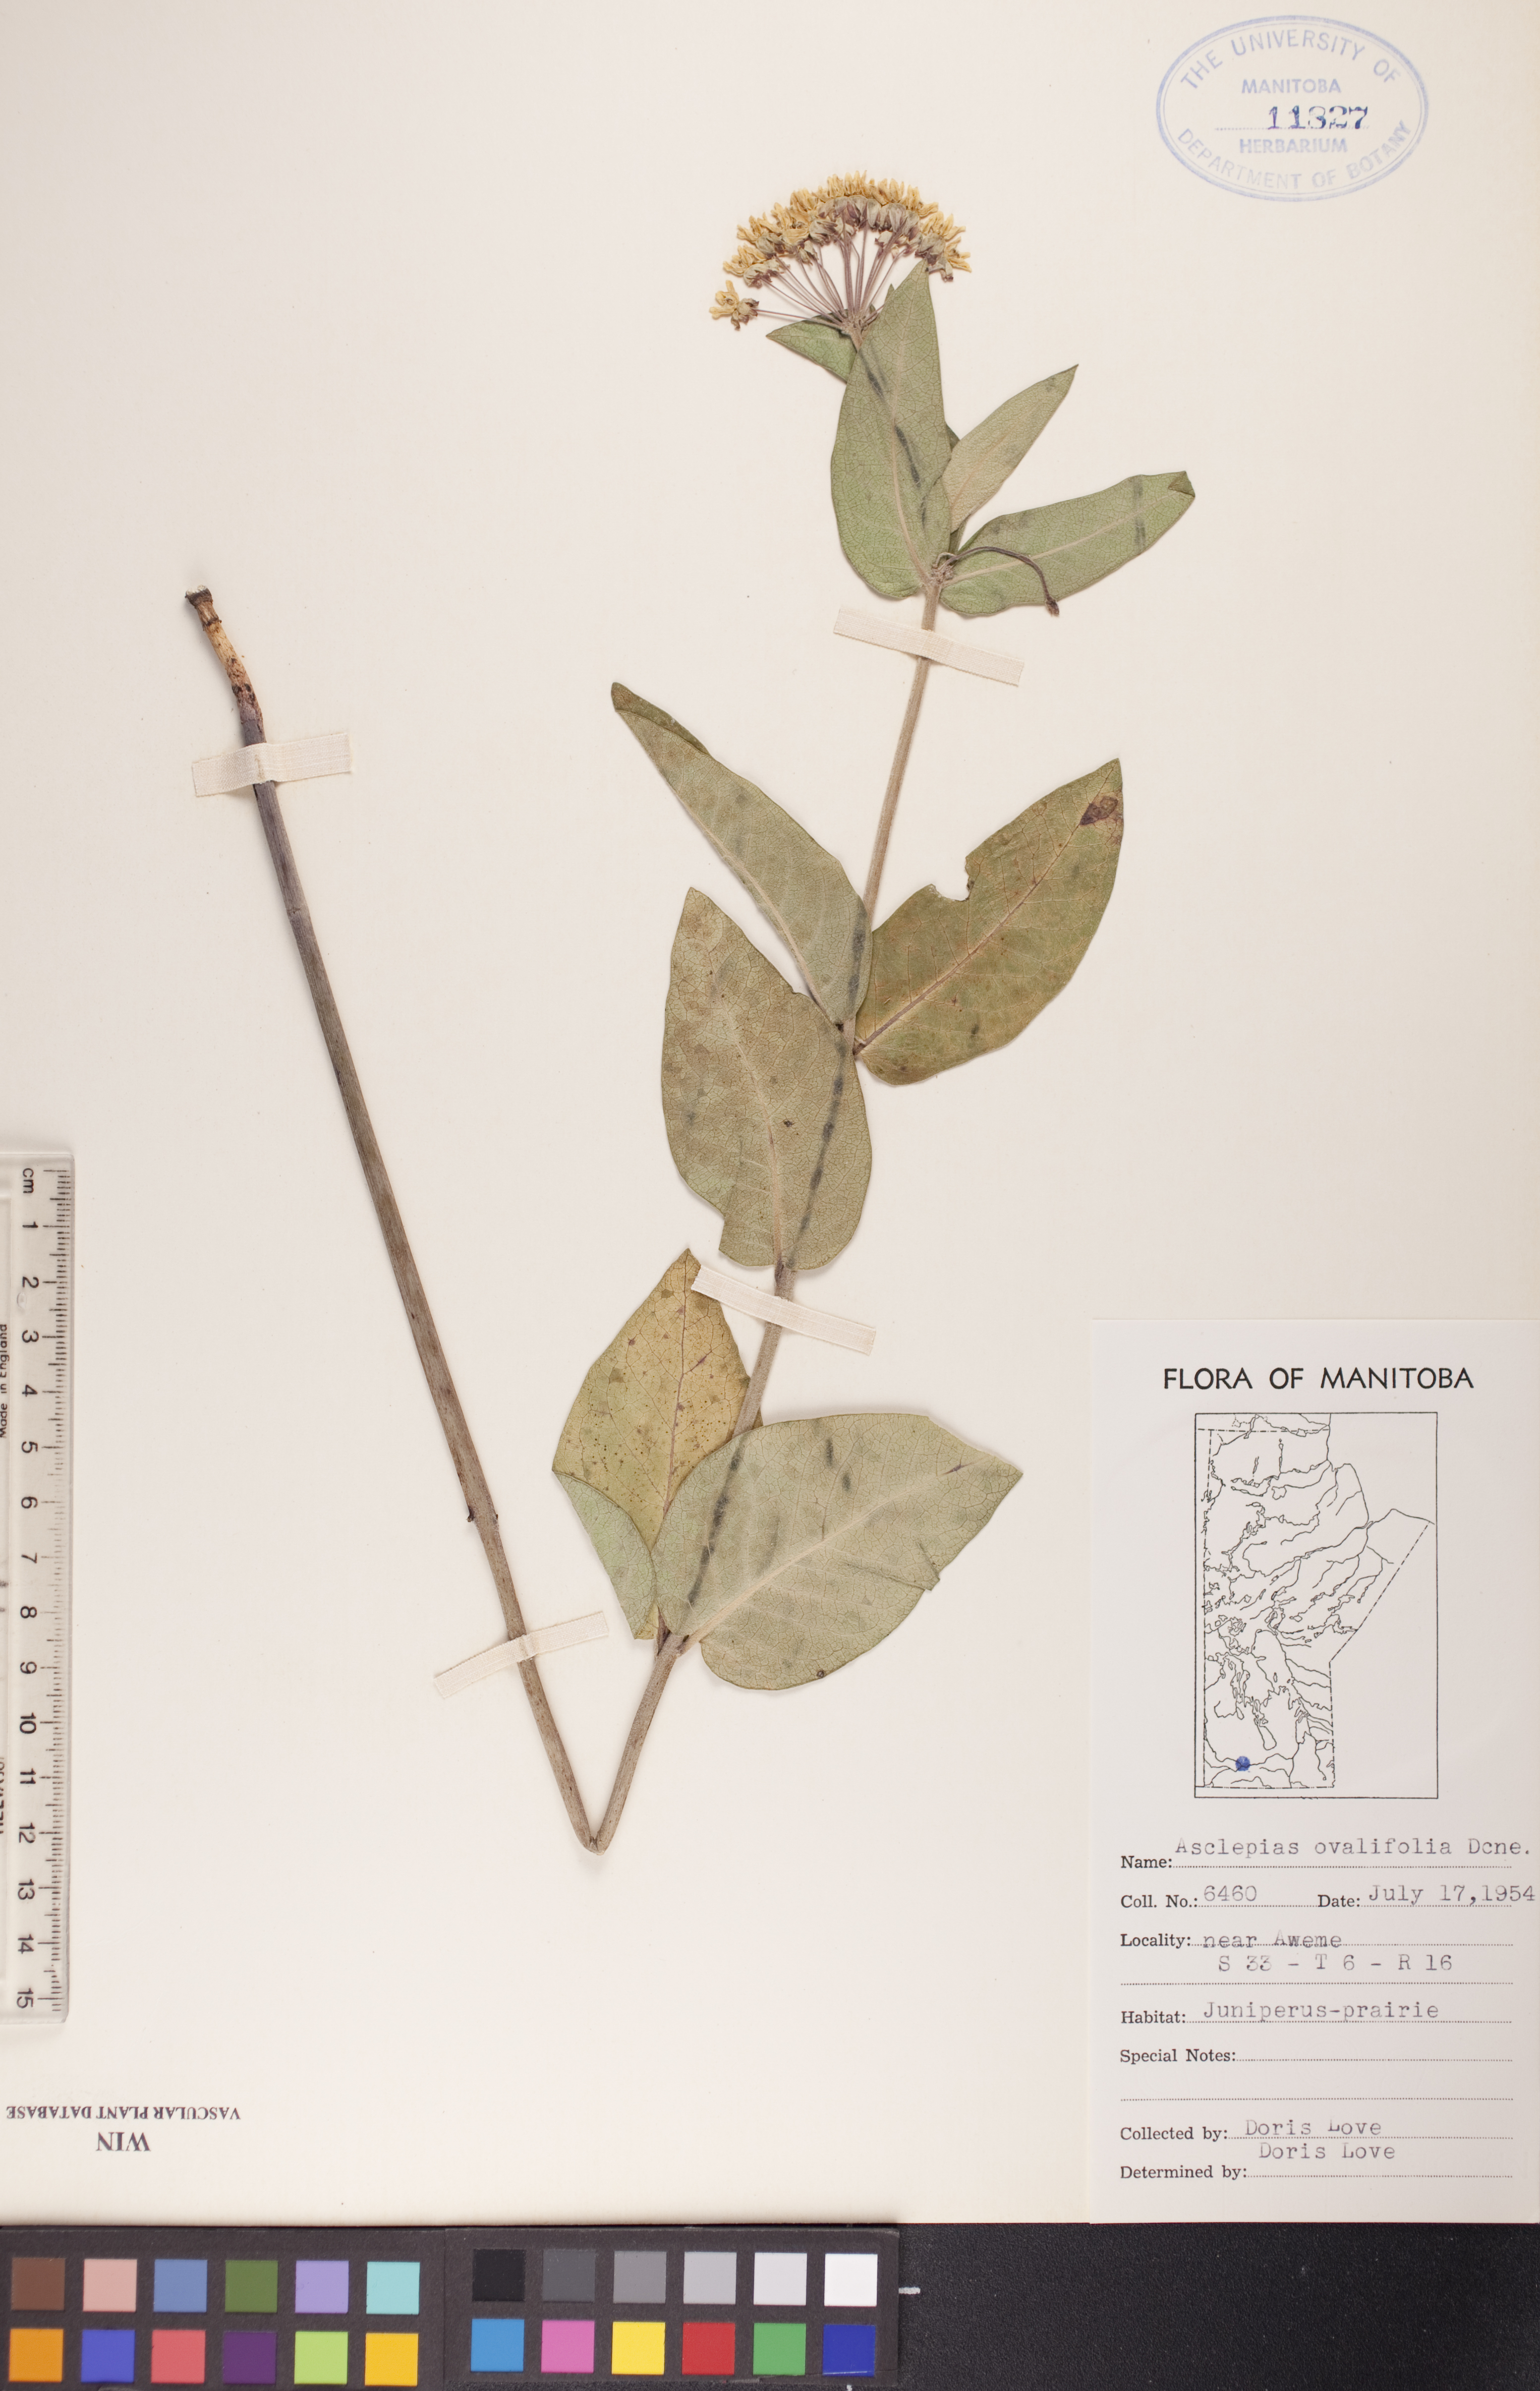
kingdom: Plantae
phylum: Tracheophyta
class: Magnoliopsida
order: Gentianales
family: Apocynaceae
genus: Asclepias
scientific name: Asclepias ovalifolia
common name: Dwarf milkweed
